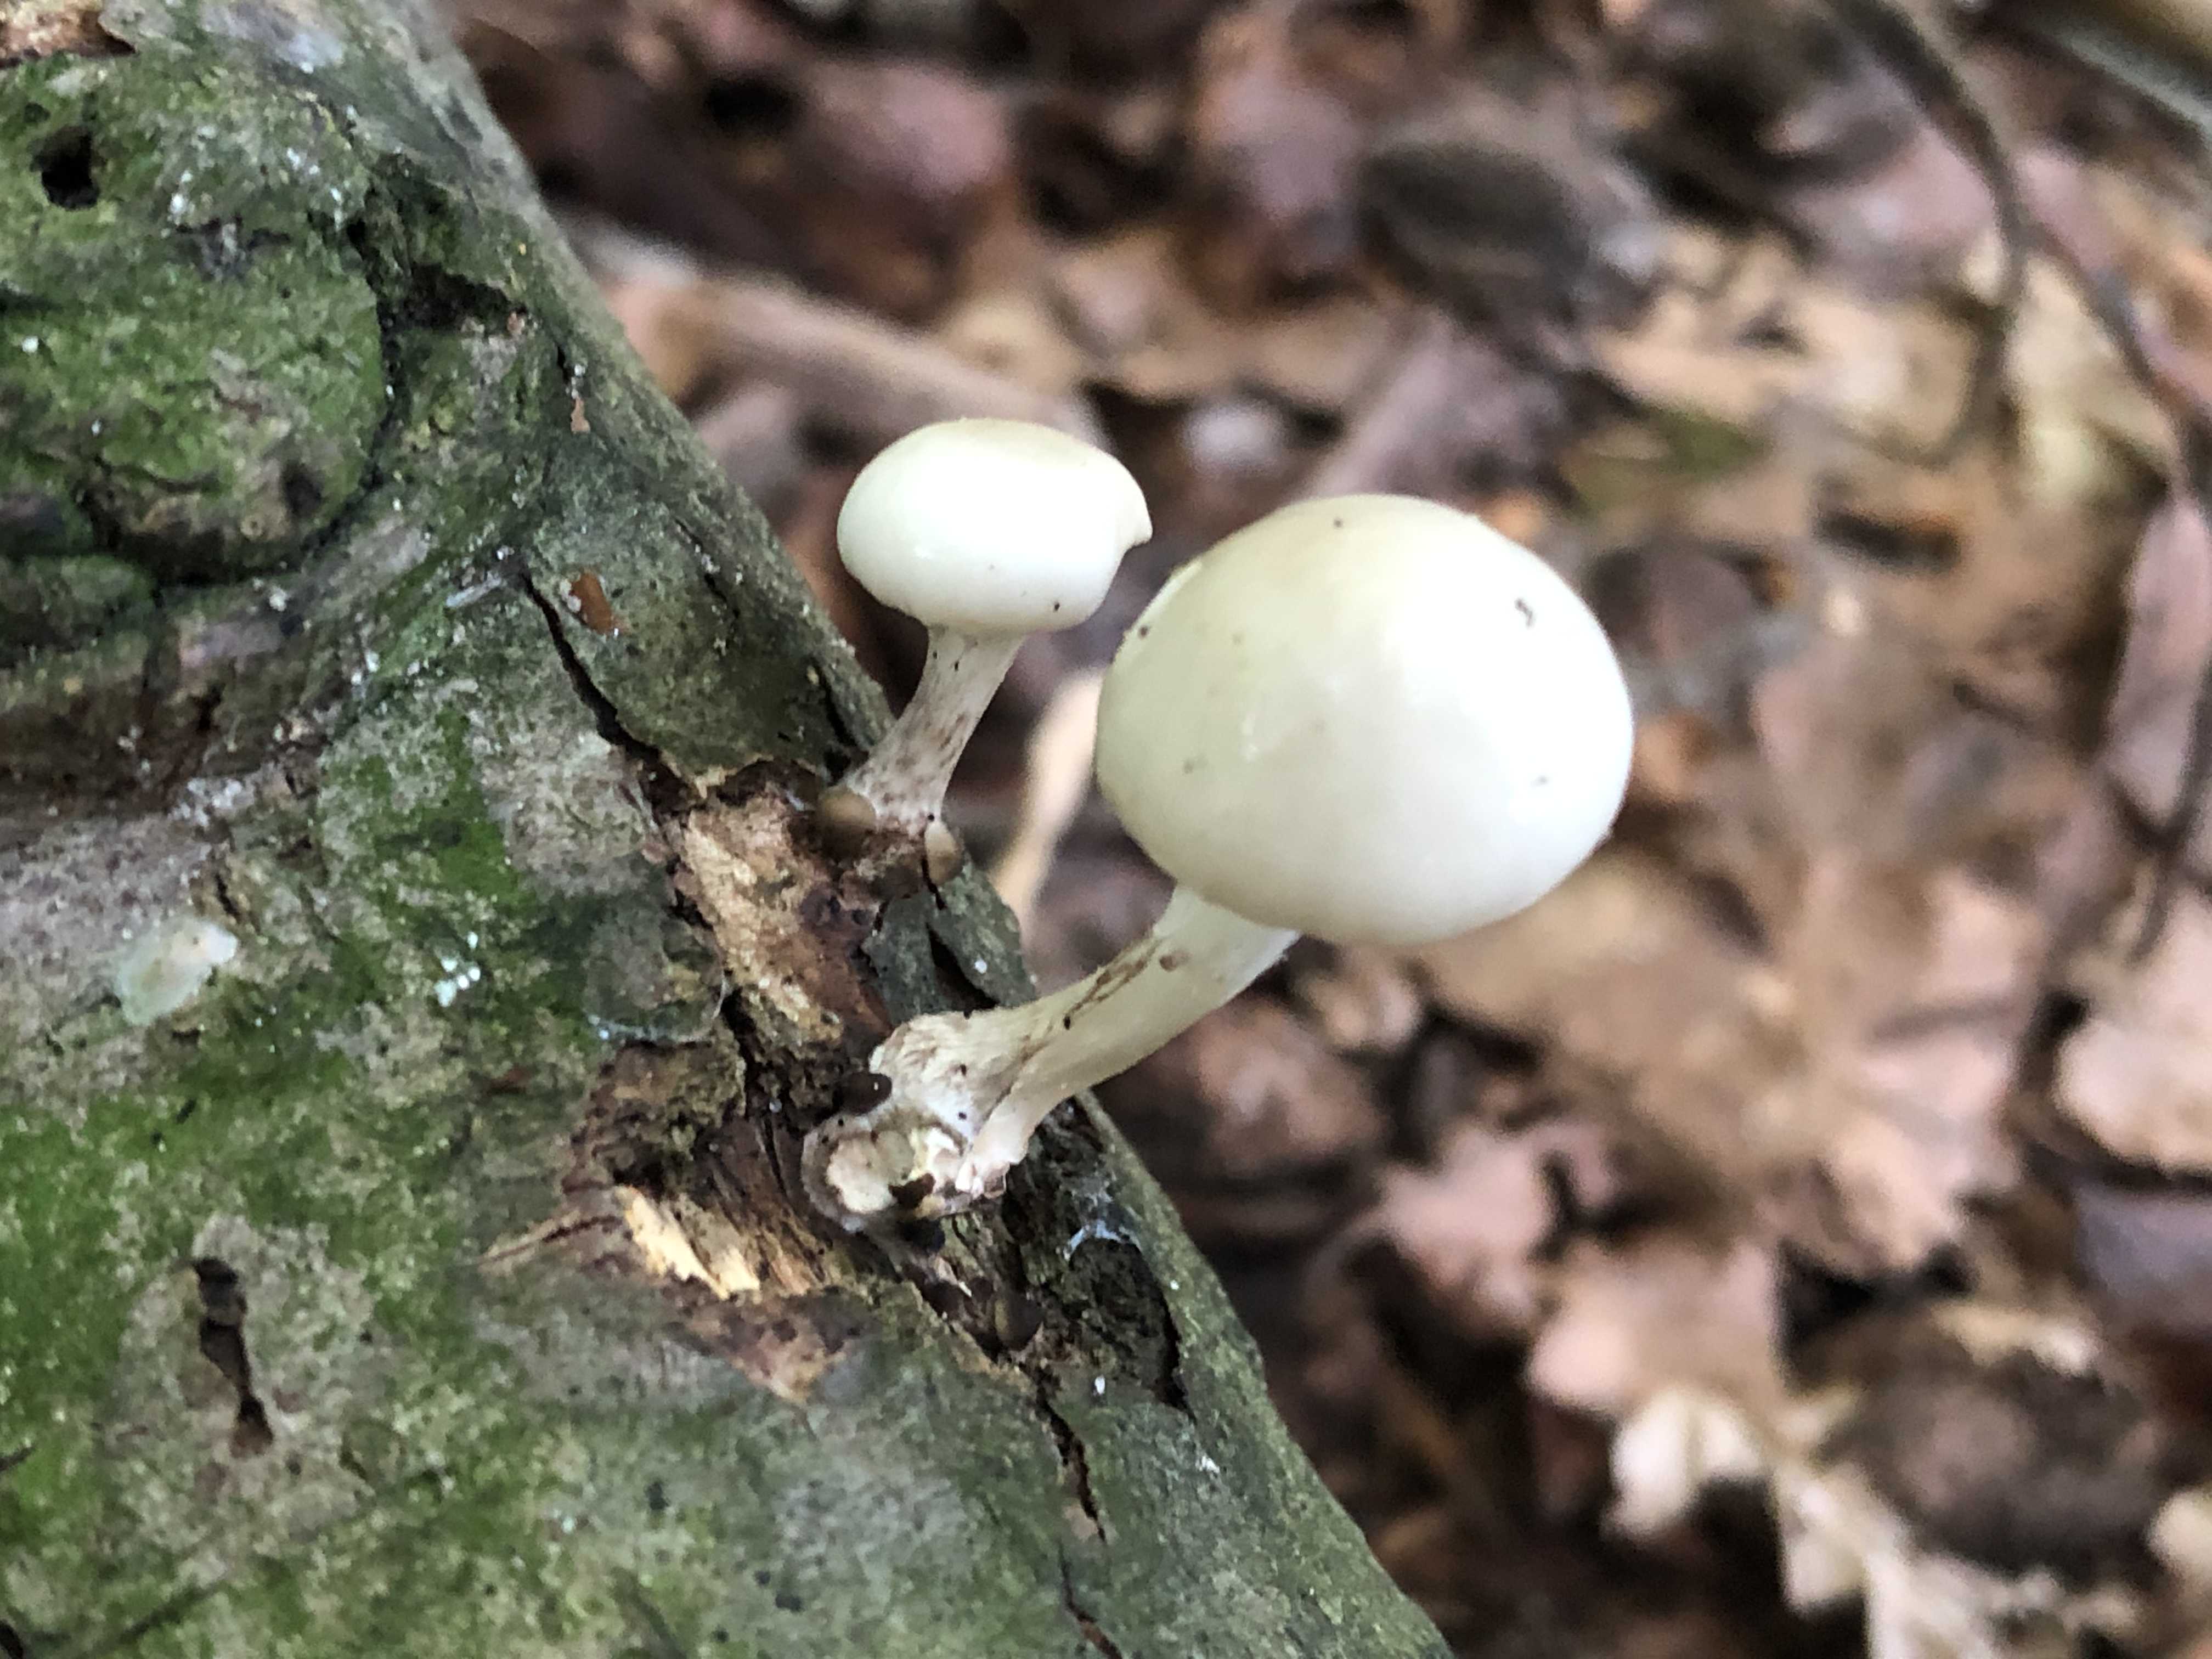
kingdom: Fungi
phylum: Basidiomycota
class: Agaricomycetes
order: Agaricales
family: Physalacriaceae
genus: Mucidula
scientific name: Mucidula mucida
